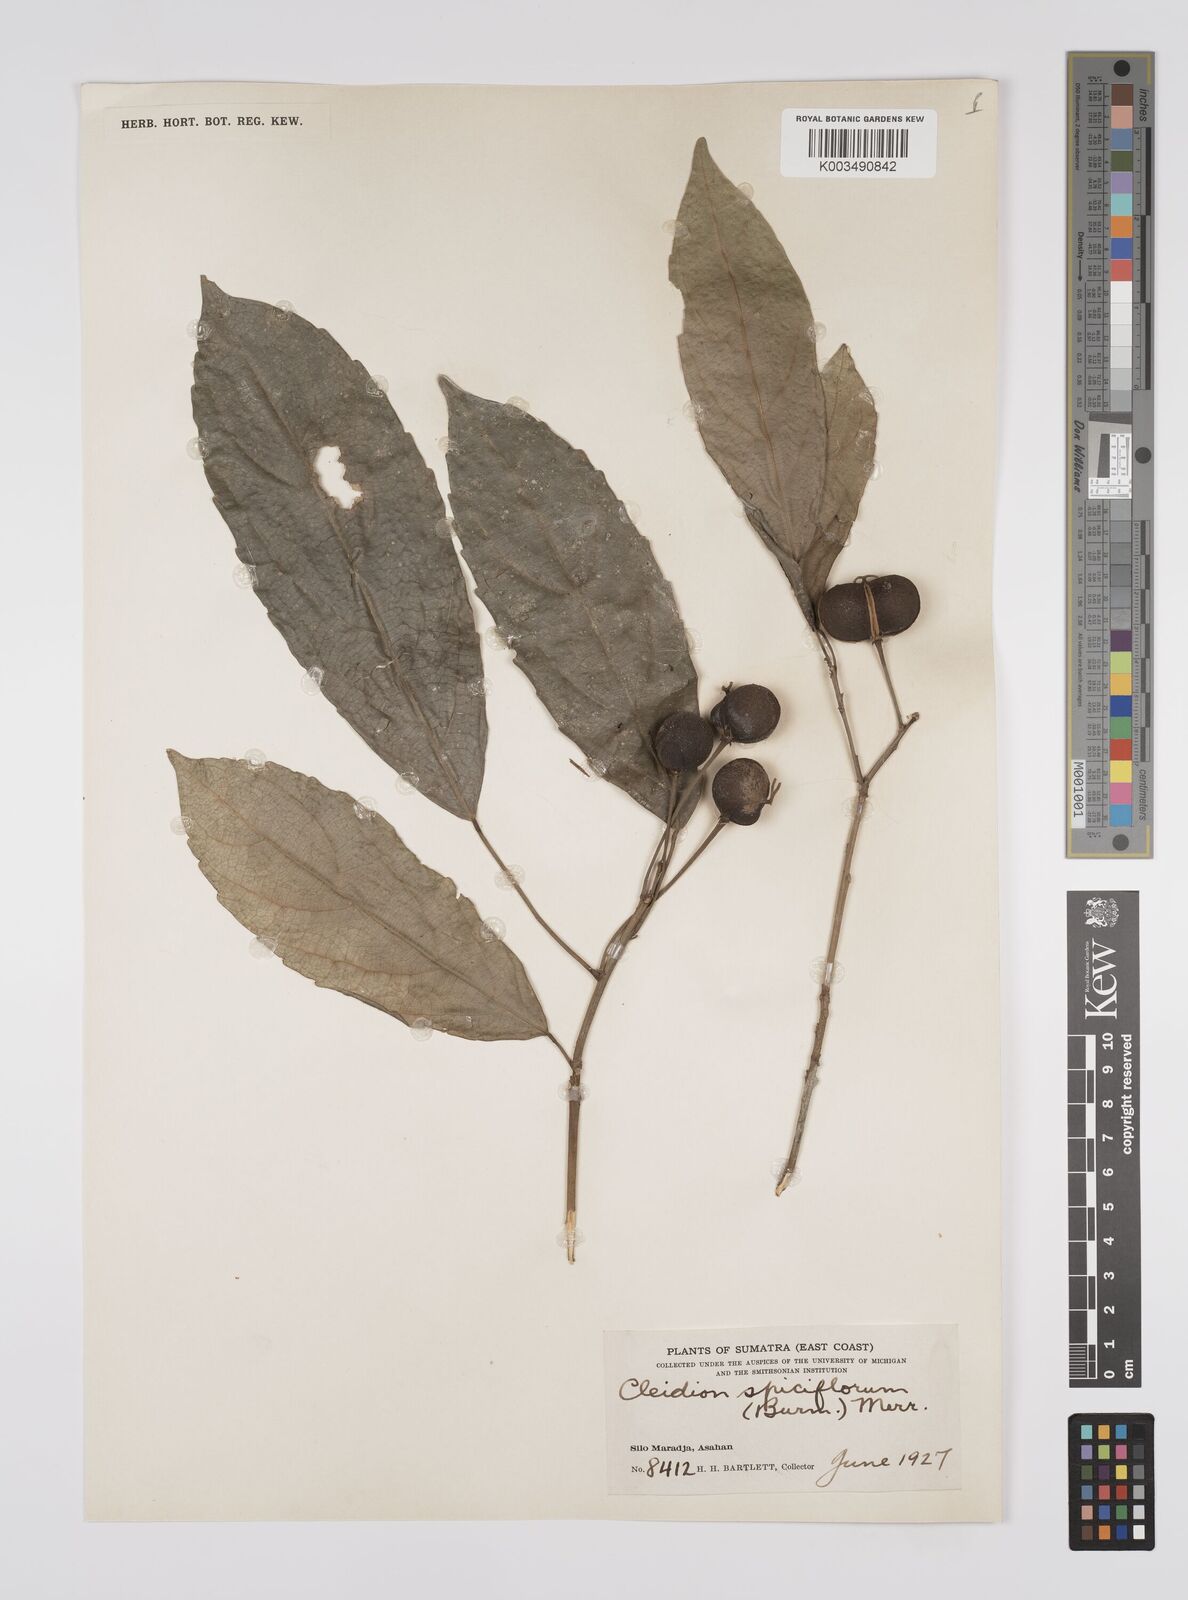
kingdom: Plantae
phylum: Tracheophyta
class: Magnoliopsida
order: Malpighiales
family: Euphorbiaceae
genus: Acalypha
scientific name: Acalypha spiciflora
